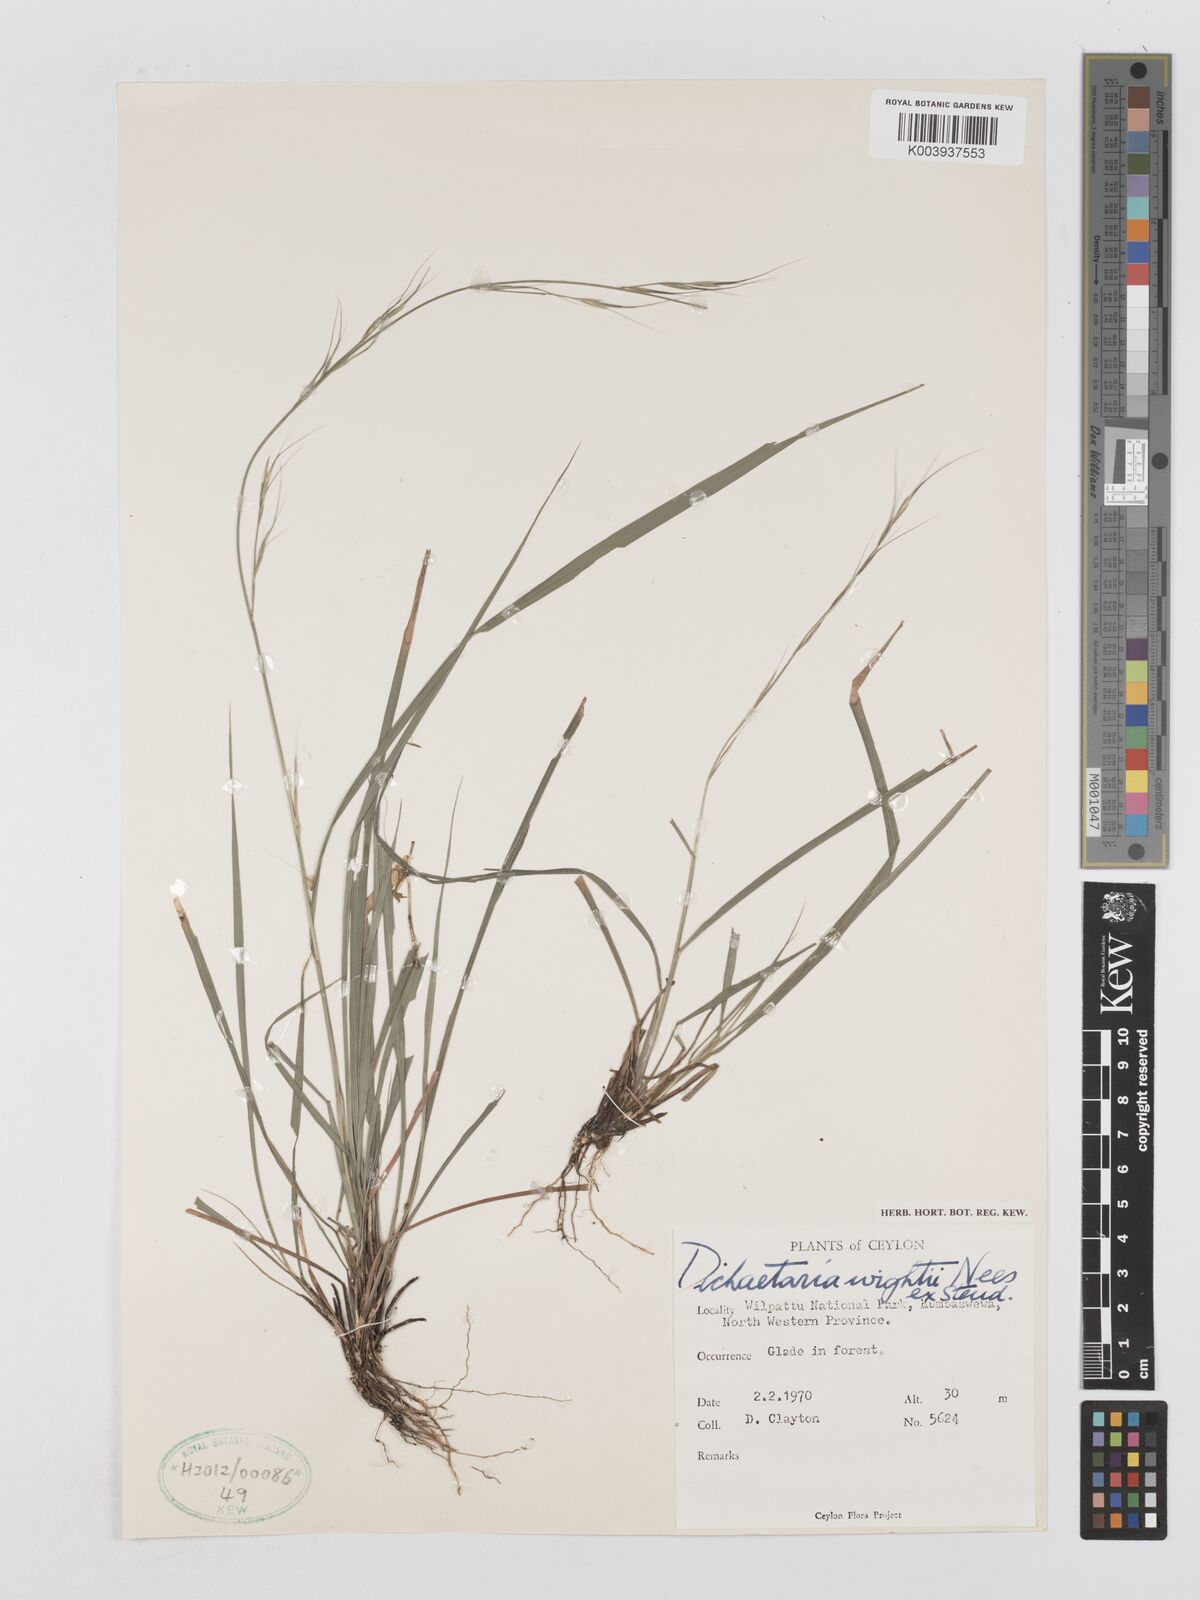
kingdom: Plantae
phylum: Tracheophyta
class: Liliopsida
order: Poales
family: Poaceae
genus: Dichaetaria
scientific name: Dichaetaria wightii
